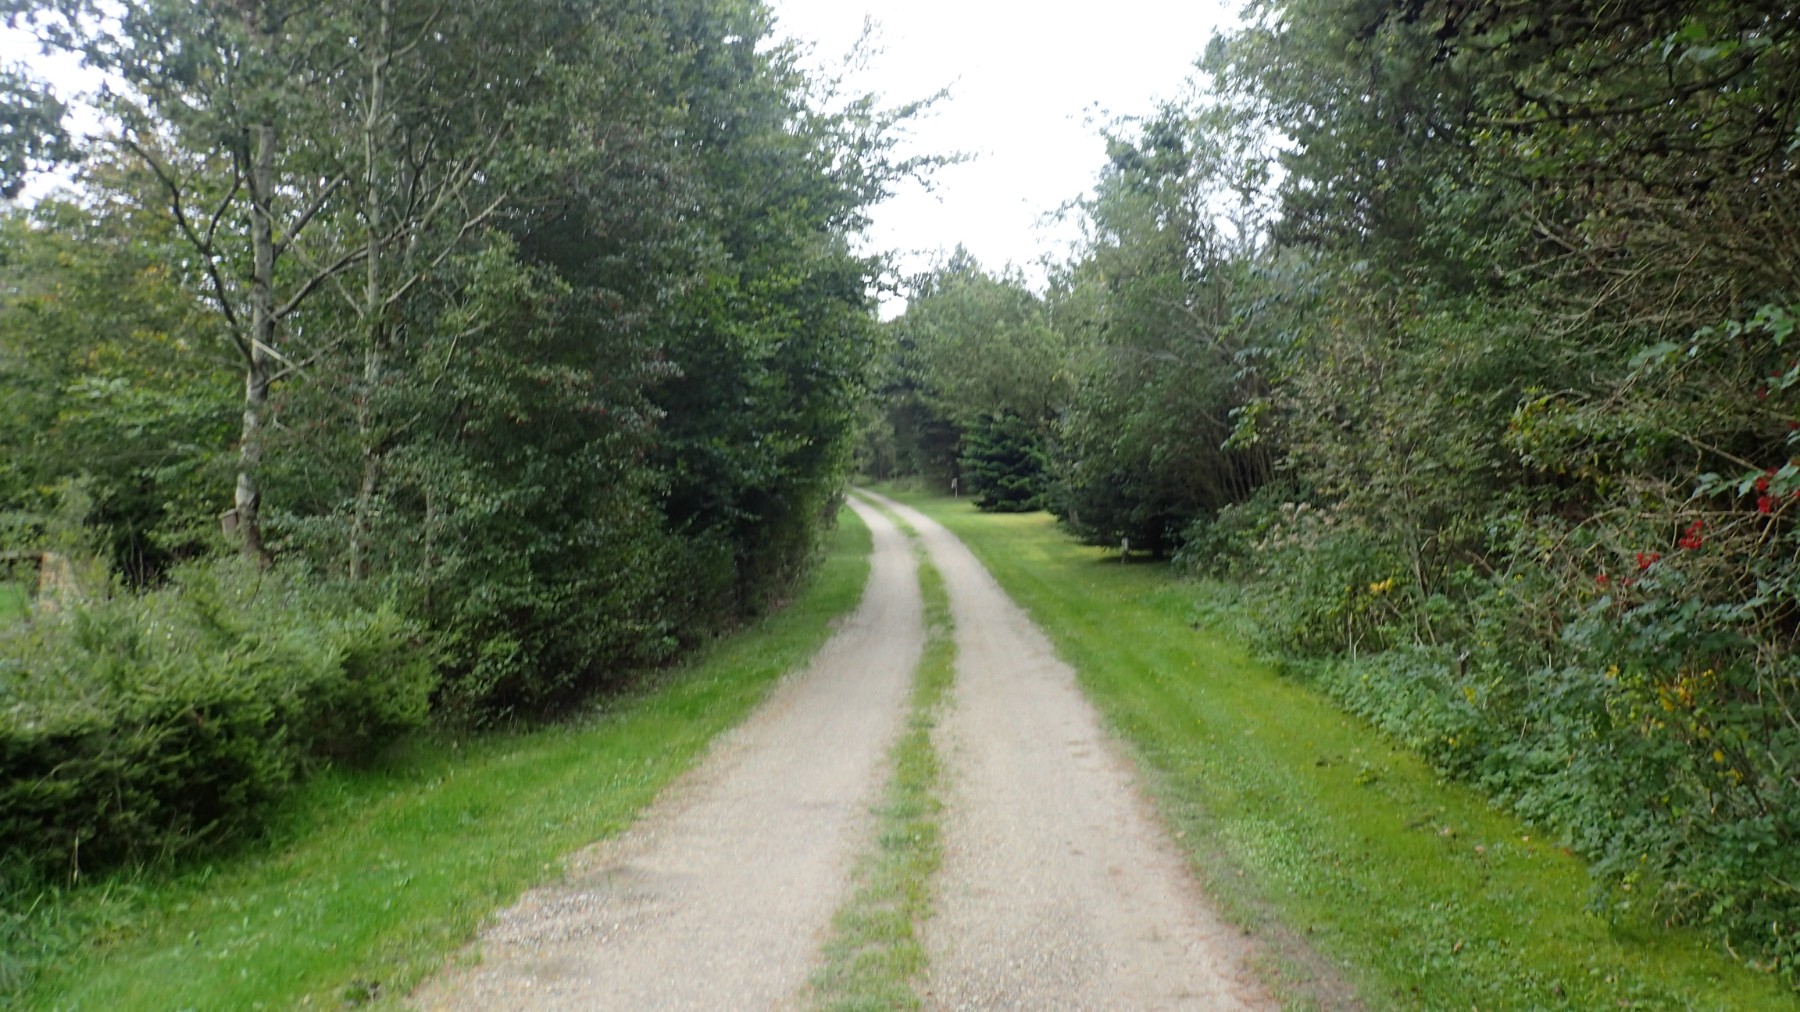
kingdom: Fungi
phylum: Basidiomycota
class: Agaricomycetes
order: Agaricales
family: Psathyrellaceae
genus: Coprinopsis
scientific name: Coprinopsis
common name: blækhat
